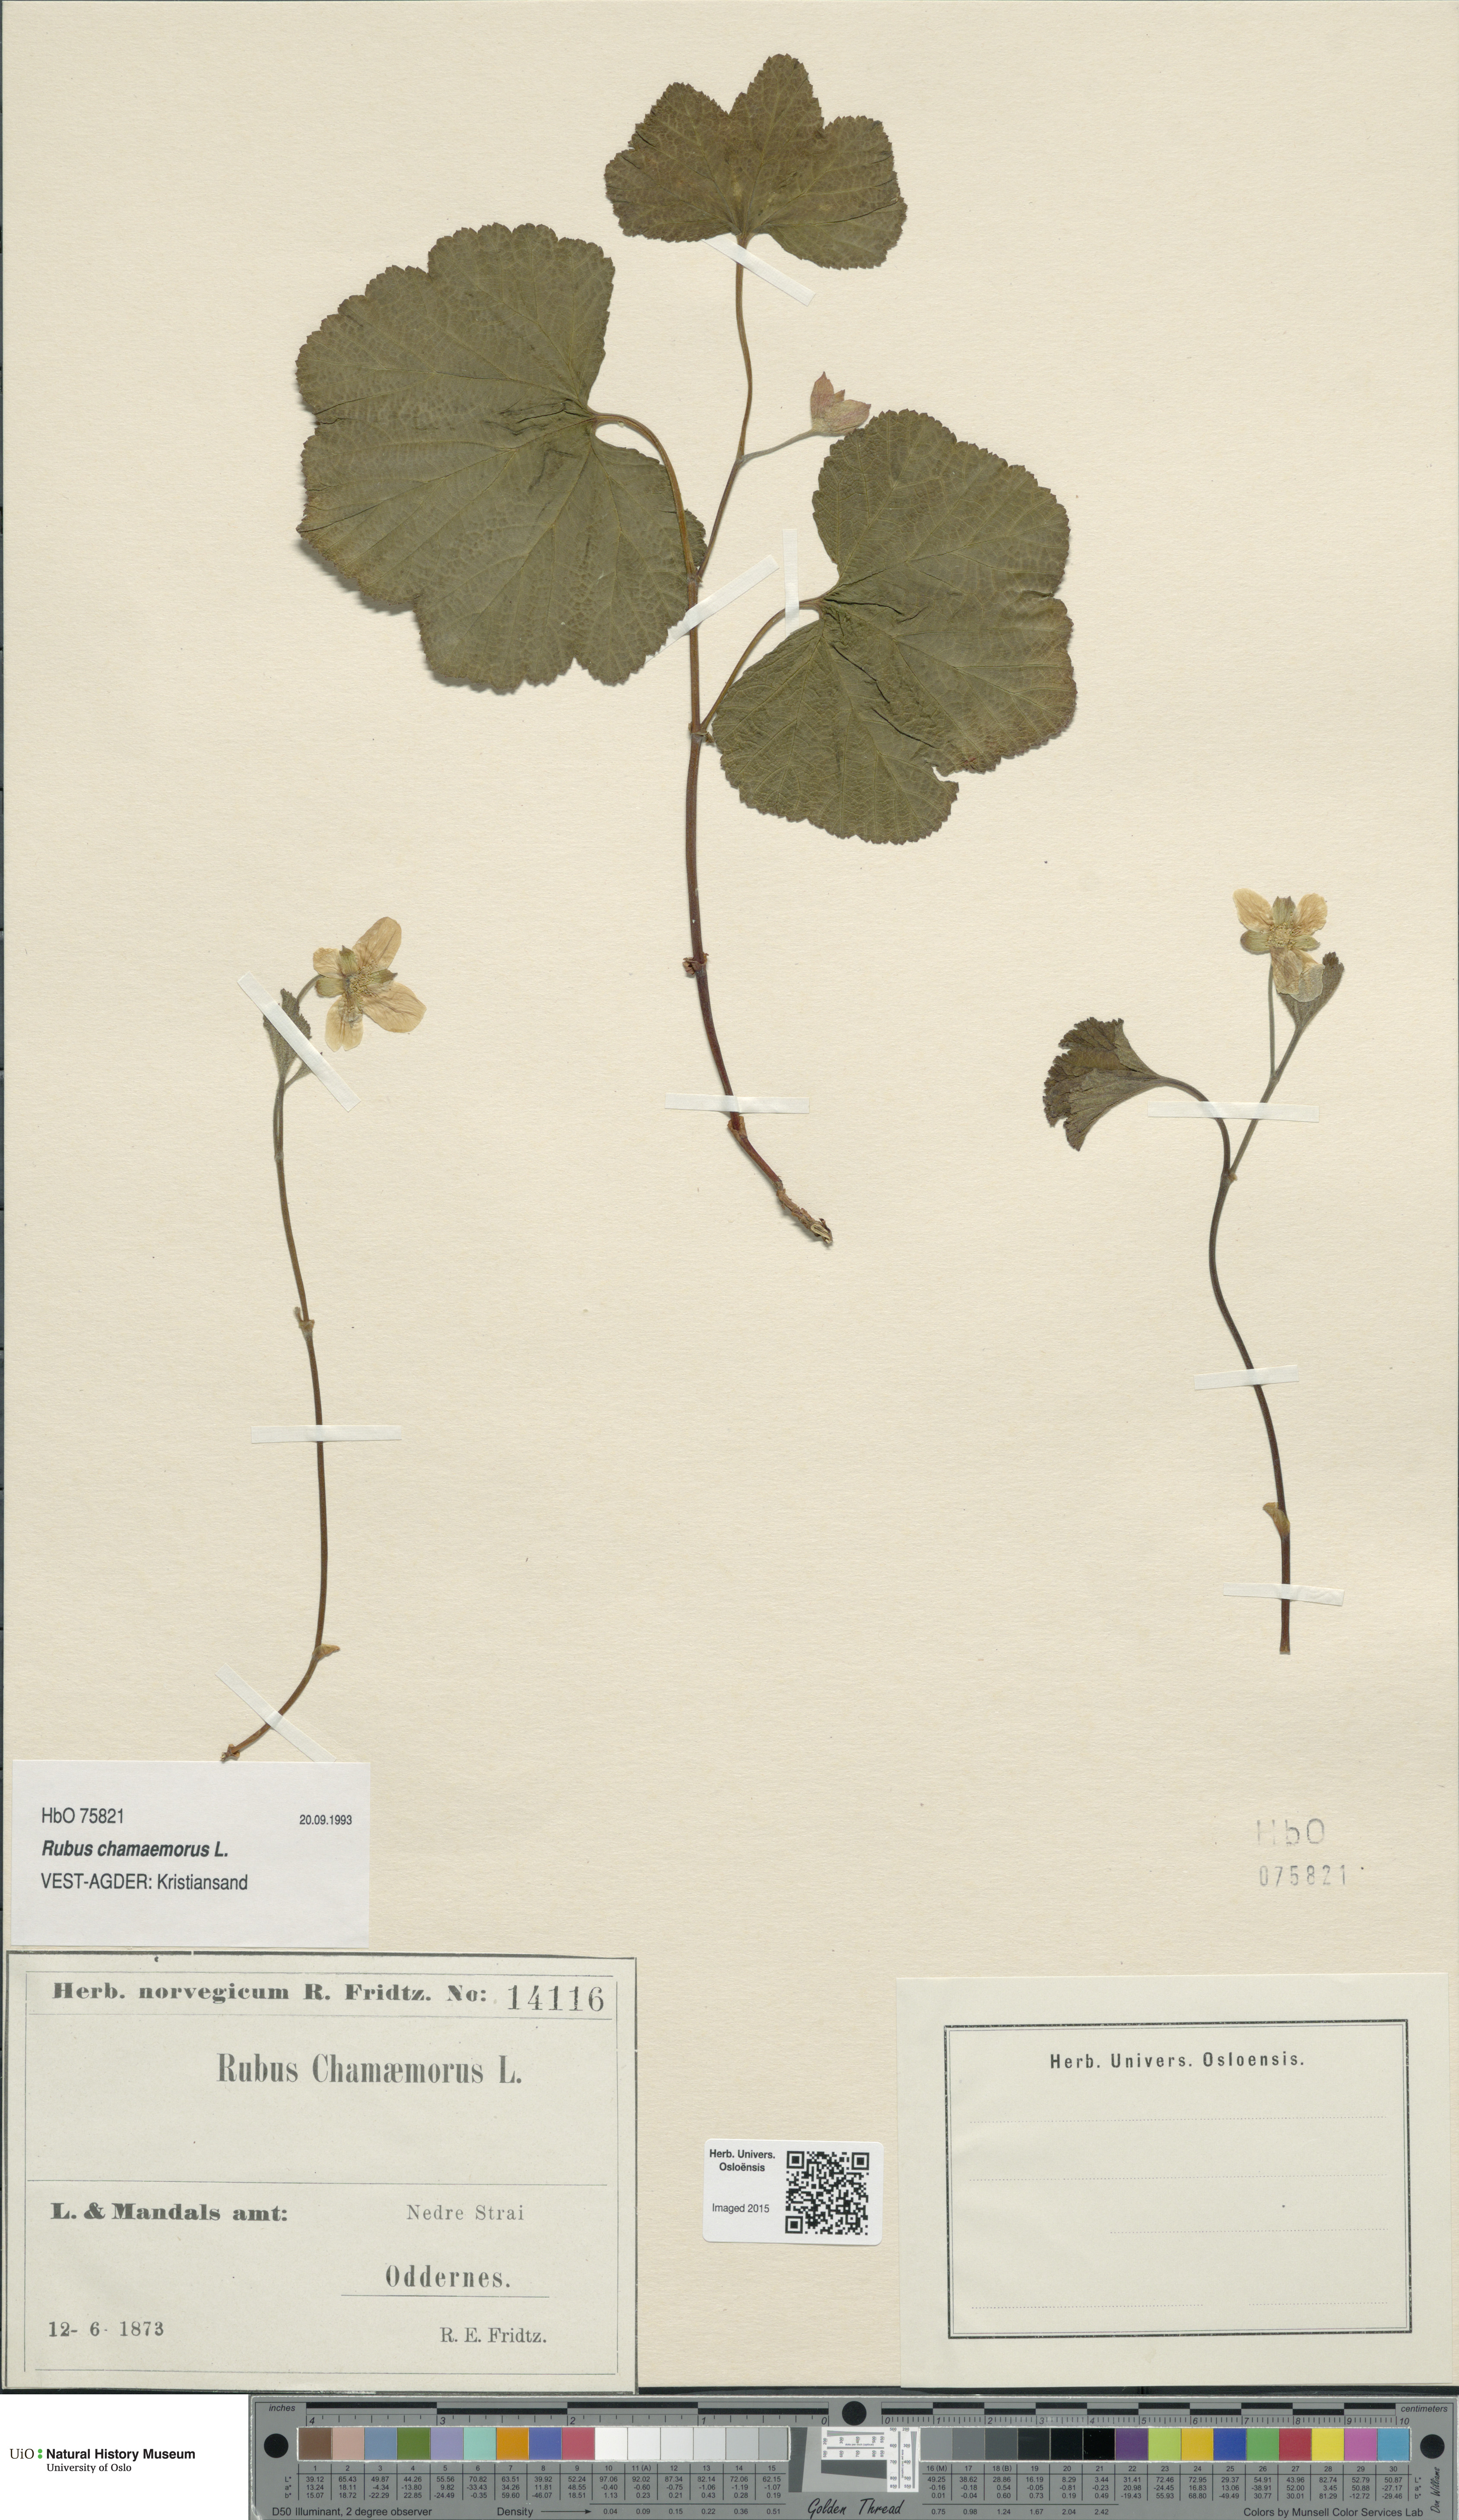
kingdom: Plantae
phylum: Tracheophyta
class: Magnoliopsida
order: Rosales
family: Rosaceae
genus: Rubus
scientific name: Rubus chamaemorus
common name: Cloudberry
